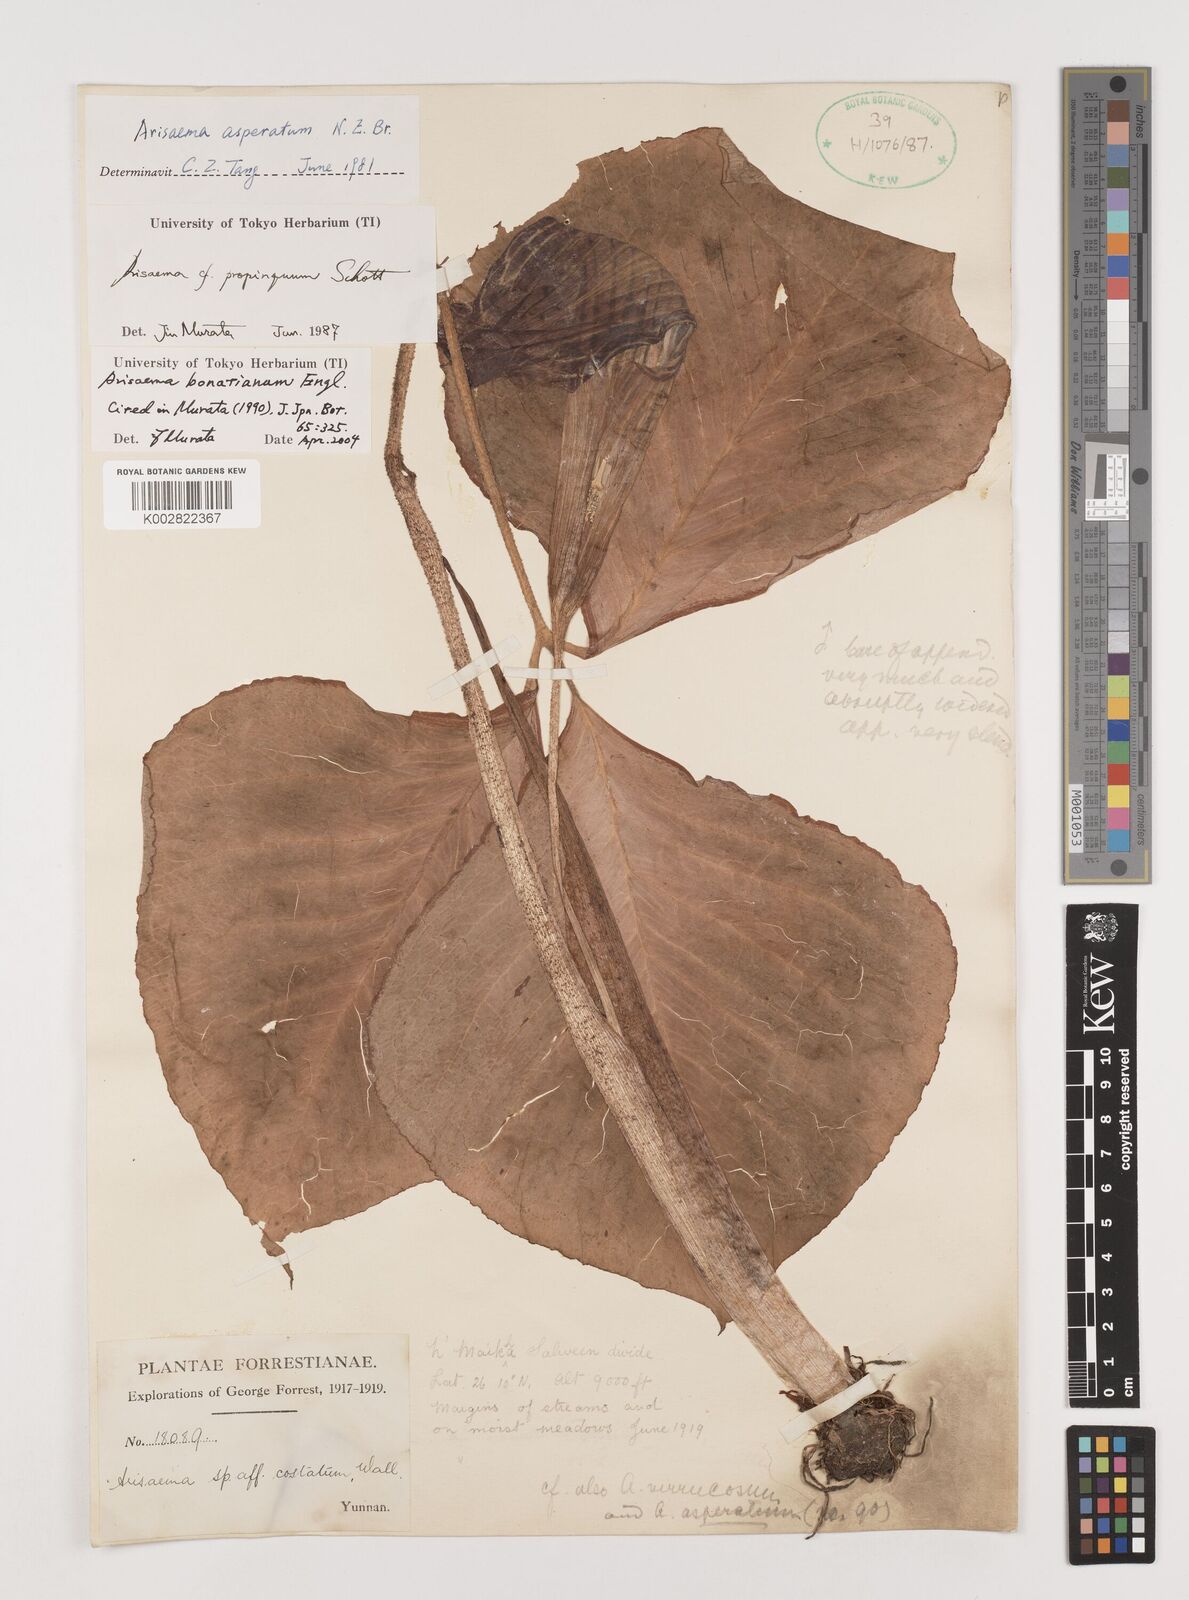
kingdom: Plantae
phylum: Tracheophyta
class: Liliopsida
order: Alismatales
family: Araceae
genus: Arisaema
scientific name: Arisaema bonatianum
